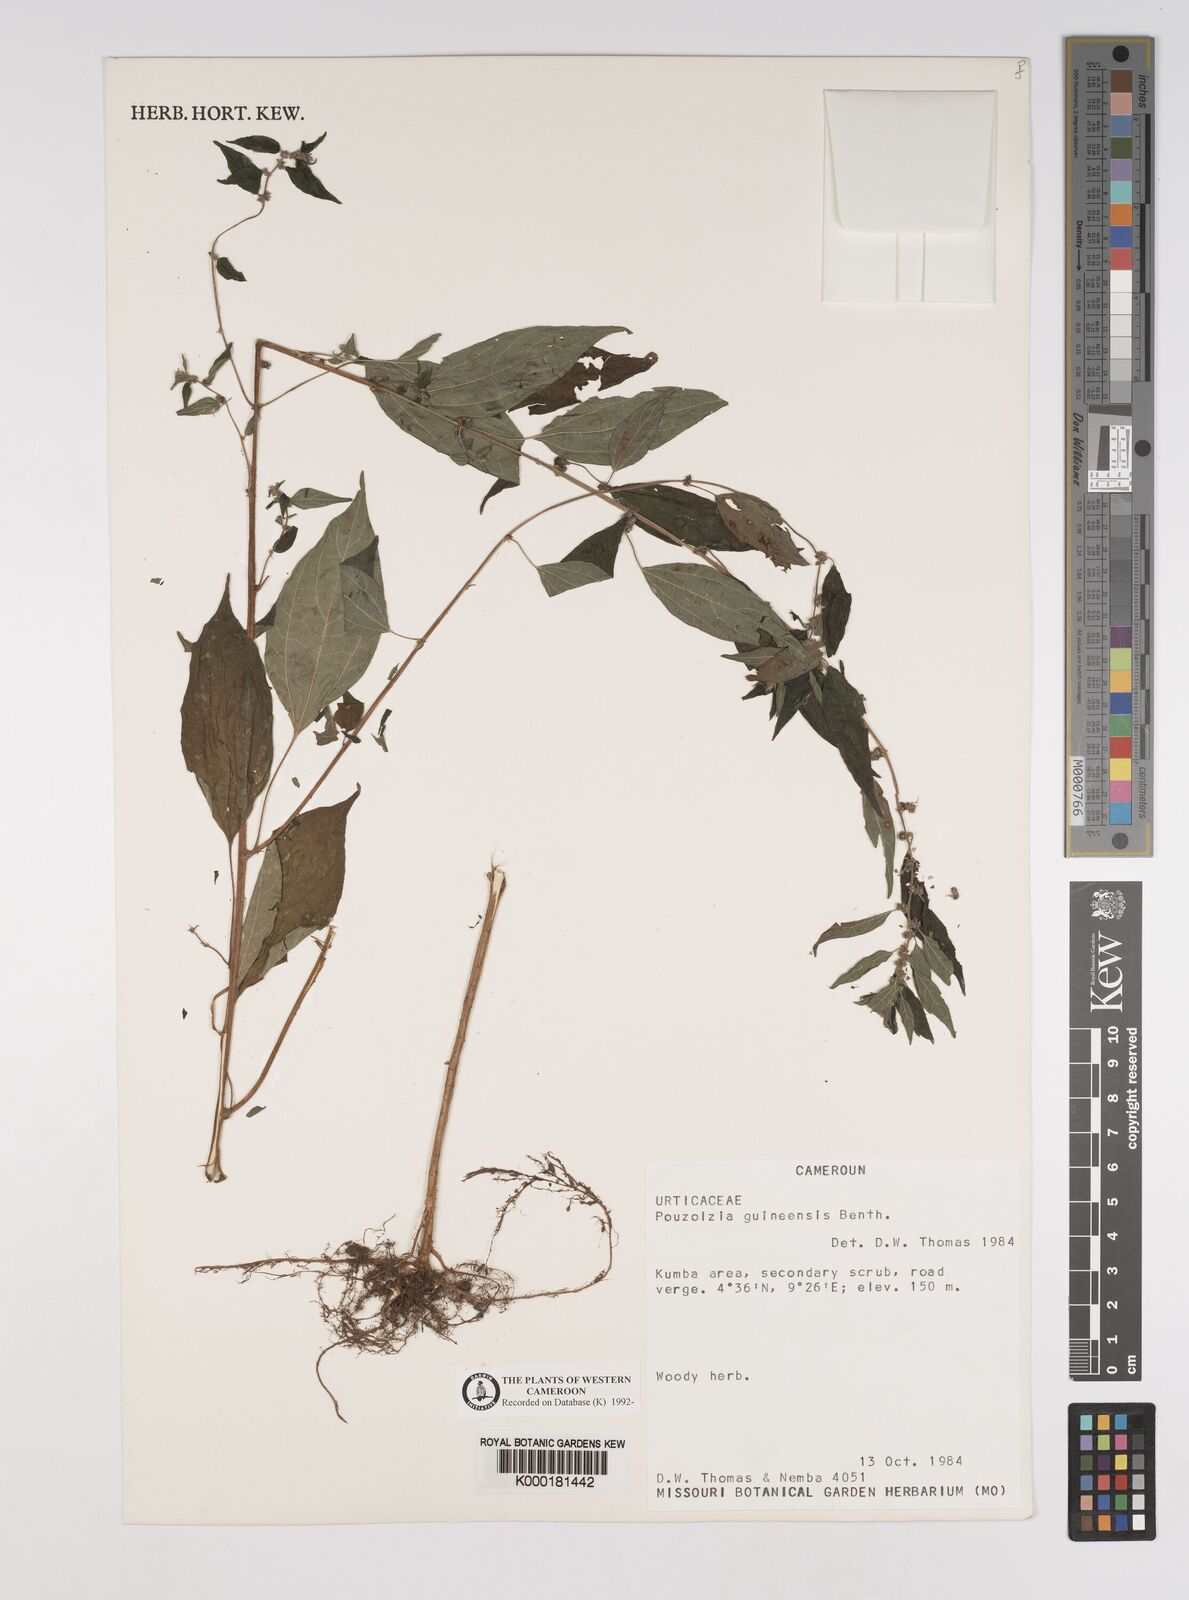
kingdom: Plantae
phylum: Tracheophyta
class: Magnoliopsida
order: Rosales
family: Urticaceae
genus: Pouzolzia
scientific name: Pouzolzia guineensis
